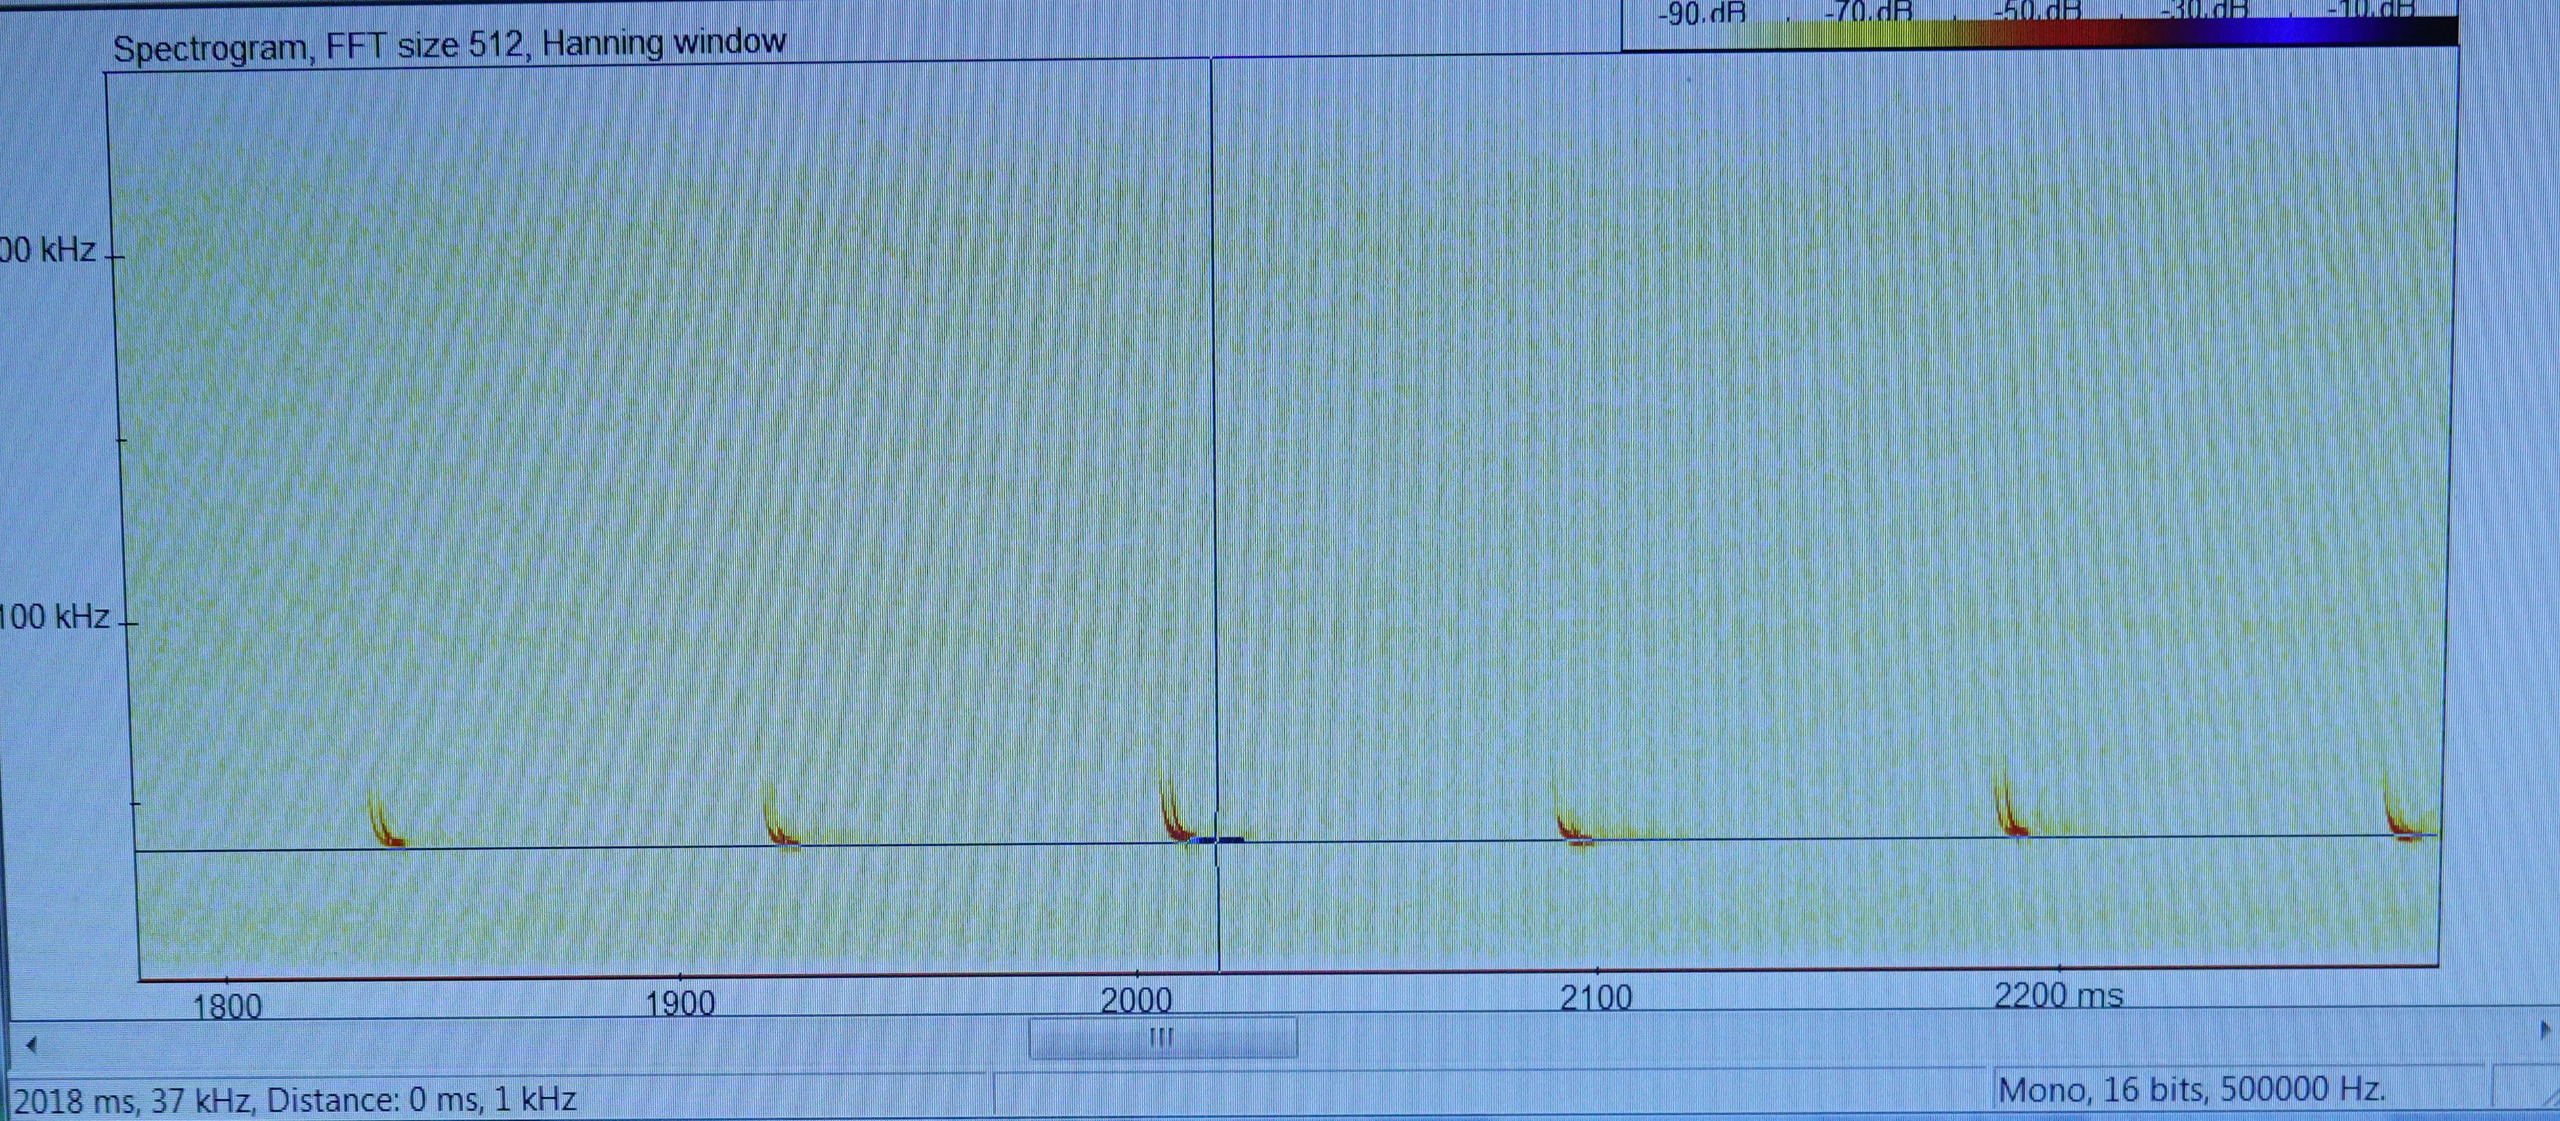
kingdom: Animalia
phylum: Chordata
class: Mammalia
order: Chiroptera
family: Vespertilionidae
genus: Pipistrellus
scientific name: Pipistrellus nathusii
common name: Troldflagermus
